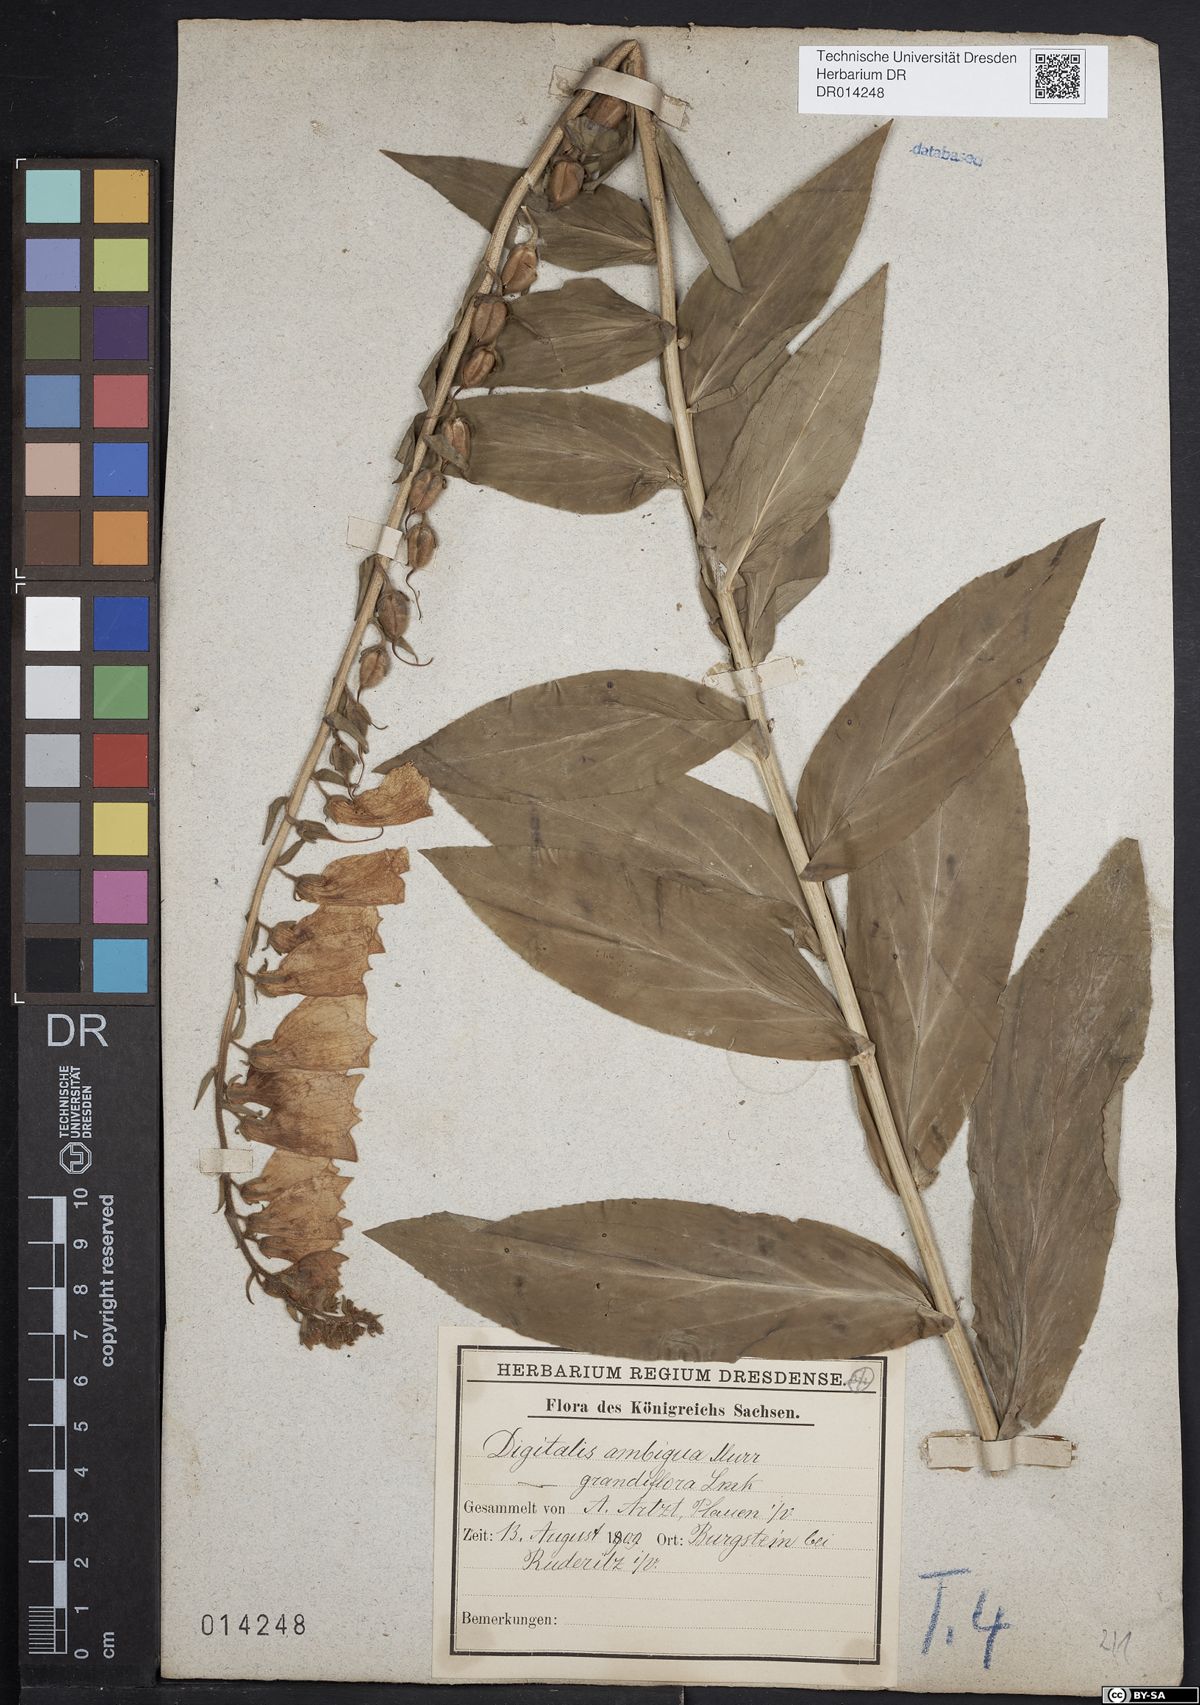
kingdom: Plantae
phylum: Tracheophyta
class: Magnoliopsida
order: Lamiales
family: Plantaginaceae
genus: Digitalis
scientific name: Digitalis grandiflora
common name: Yellow foxglove
